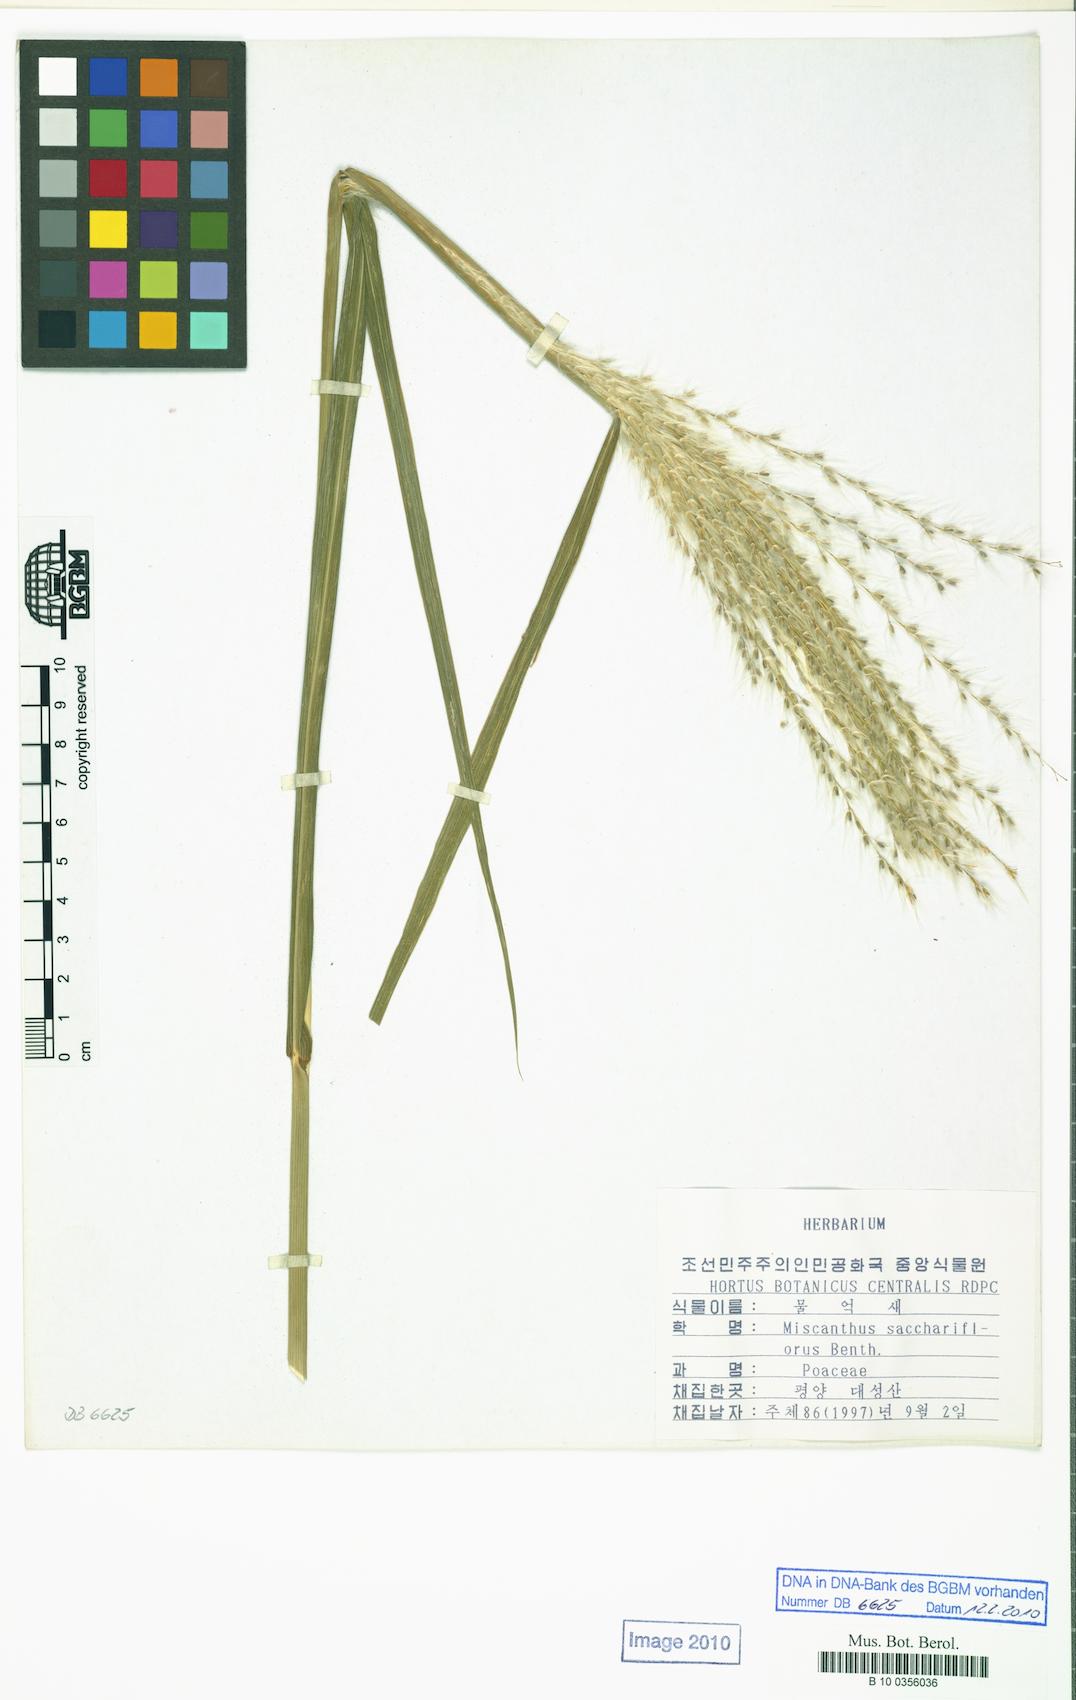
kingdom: Plantae
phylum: Tracheophyta
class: Liliopsida
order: Poales
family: Poaceae
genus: Miscanthus
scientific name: Miscanthus sacchariflorus
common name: Amur silver grass
